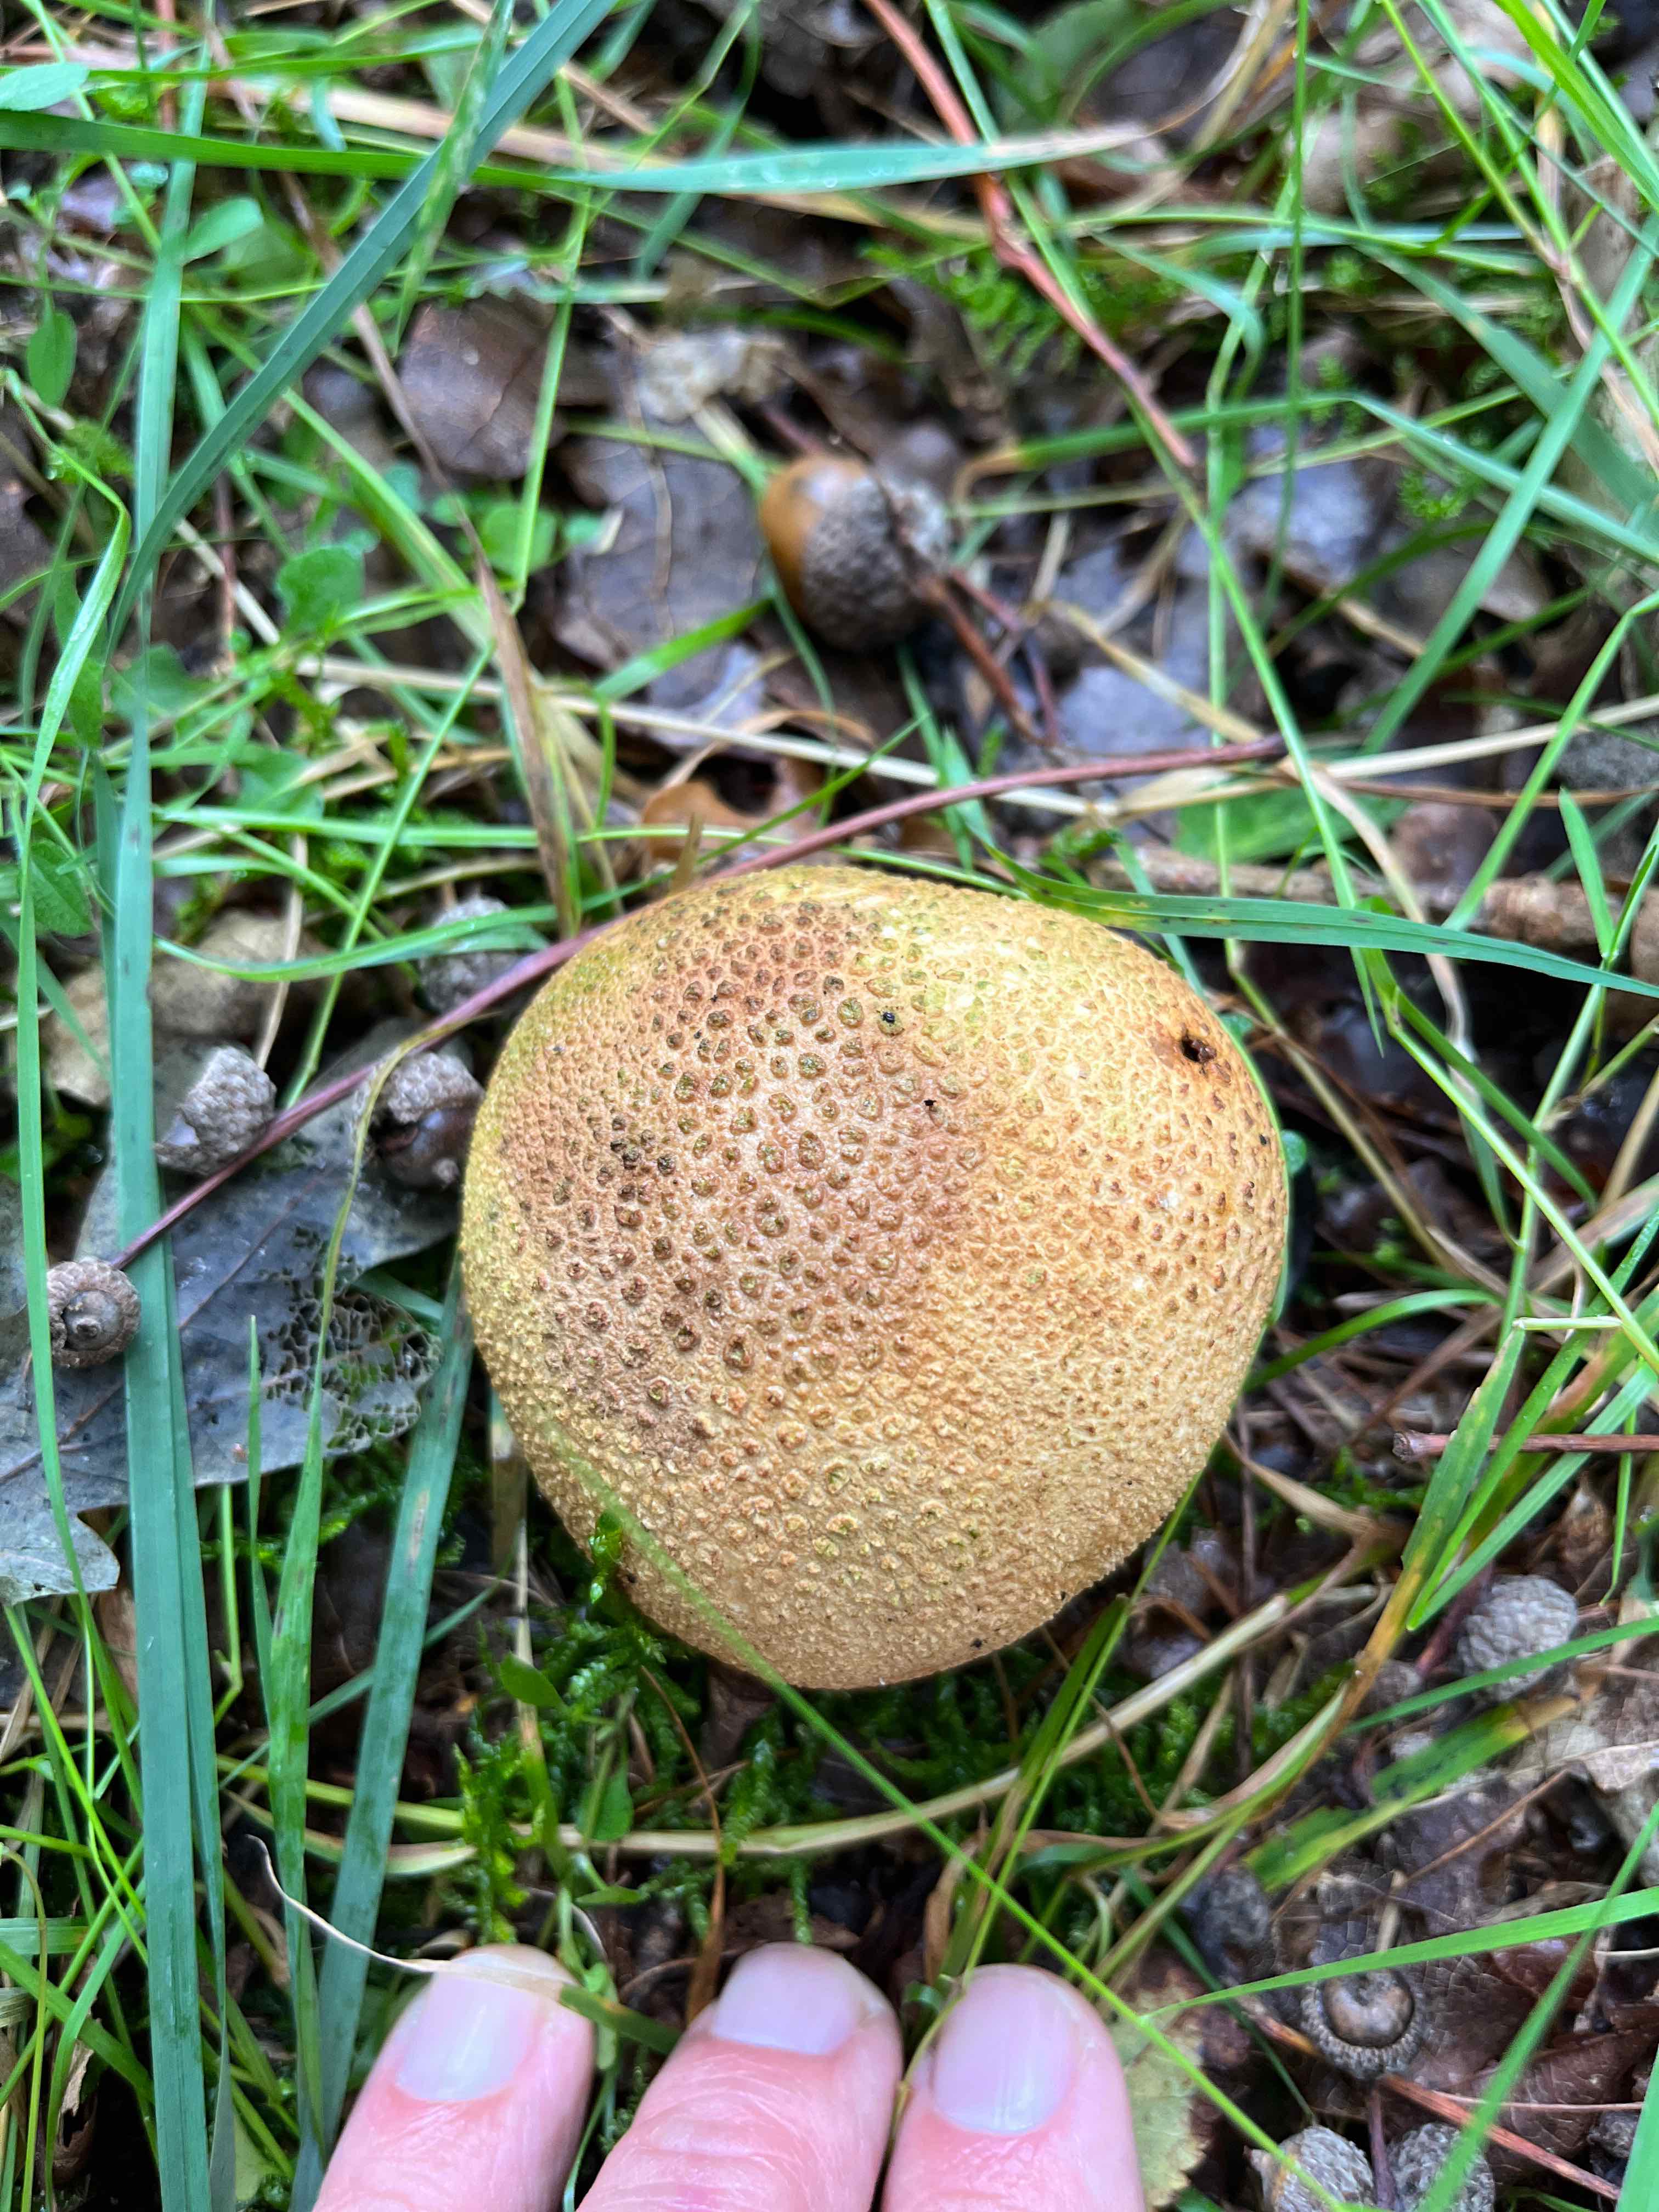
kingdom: Fungi
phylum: Basidiomycota
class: Agaricomycetes
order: Boletales
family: Sclerodermataceae
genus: Scleroderma
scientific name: Scleroderma citrinum
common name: almindelig bruskbold
